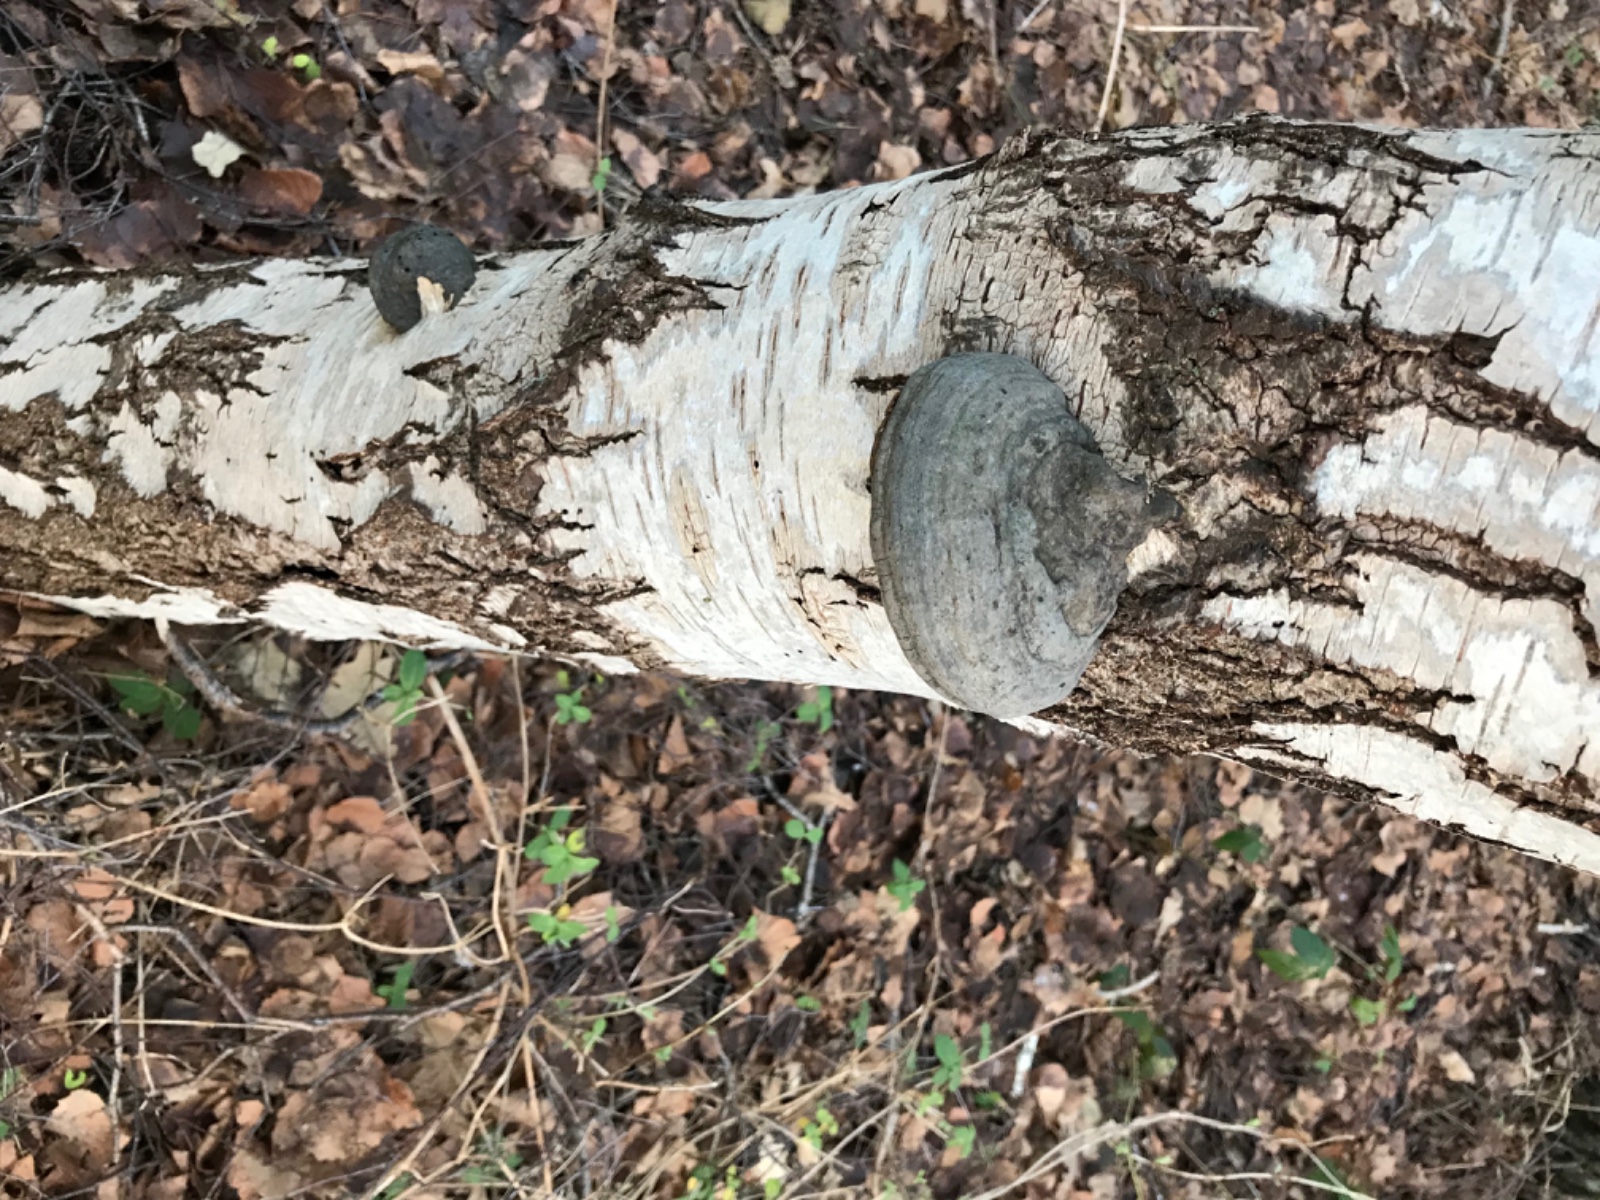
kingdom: Fungi
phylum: Basidiomycota
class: Agaricomycetes
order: Polyporales
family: Polyporaceae
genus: Fomes
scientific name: Fomes fomentarius
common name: tøndersvamp
